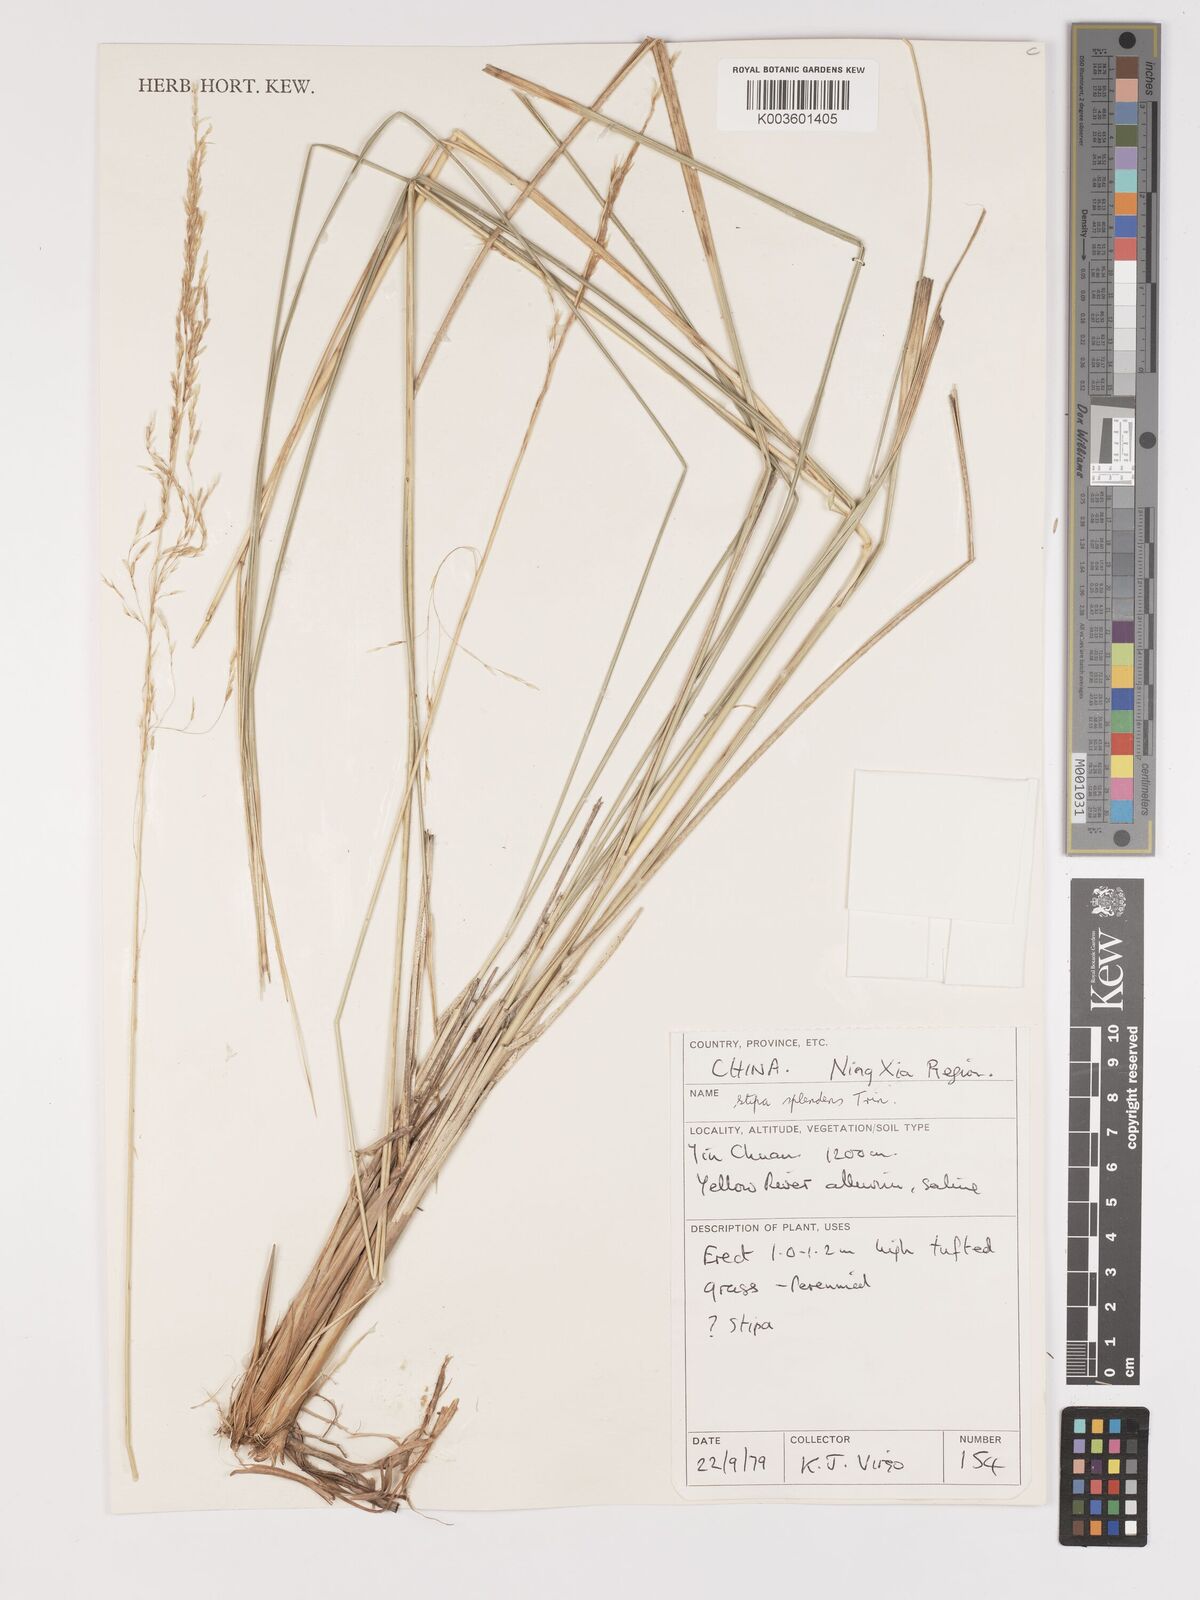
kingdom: Plantae
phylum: Tracheophyta
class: Liliopsida
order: Poales
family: Poaceae
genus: Neotrinia
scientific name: Neotrinia splendens
